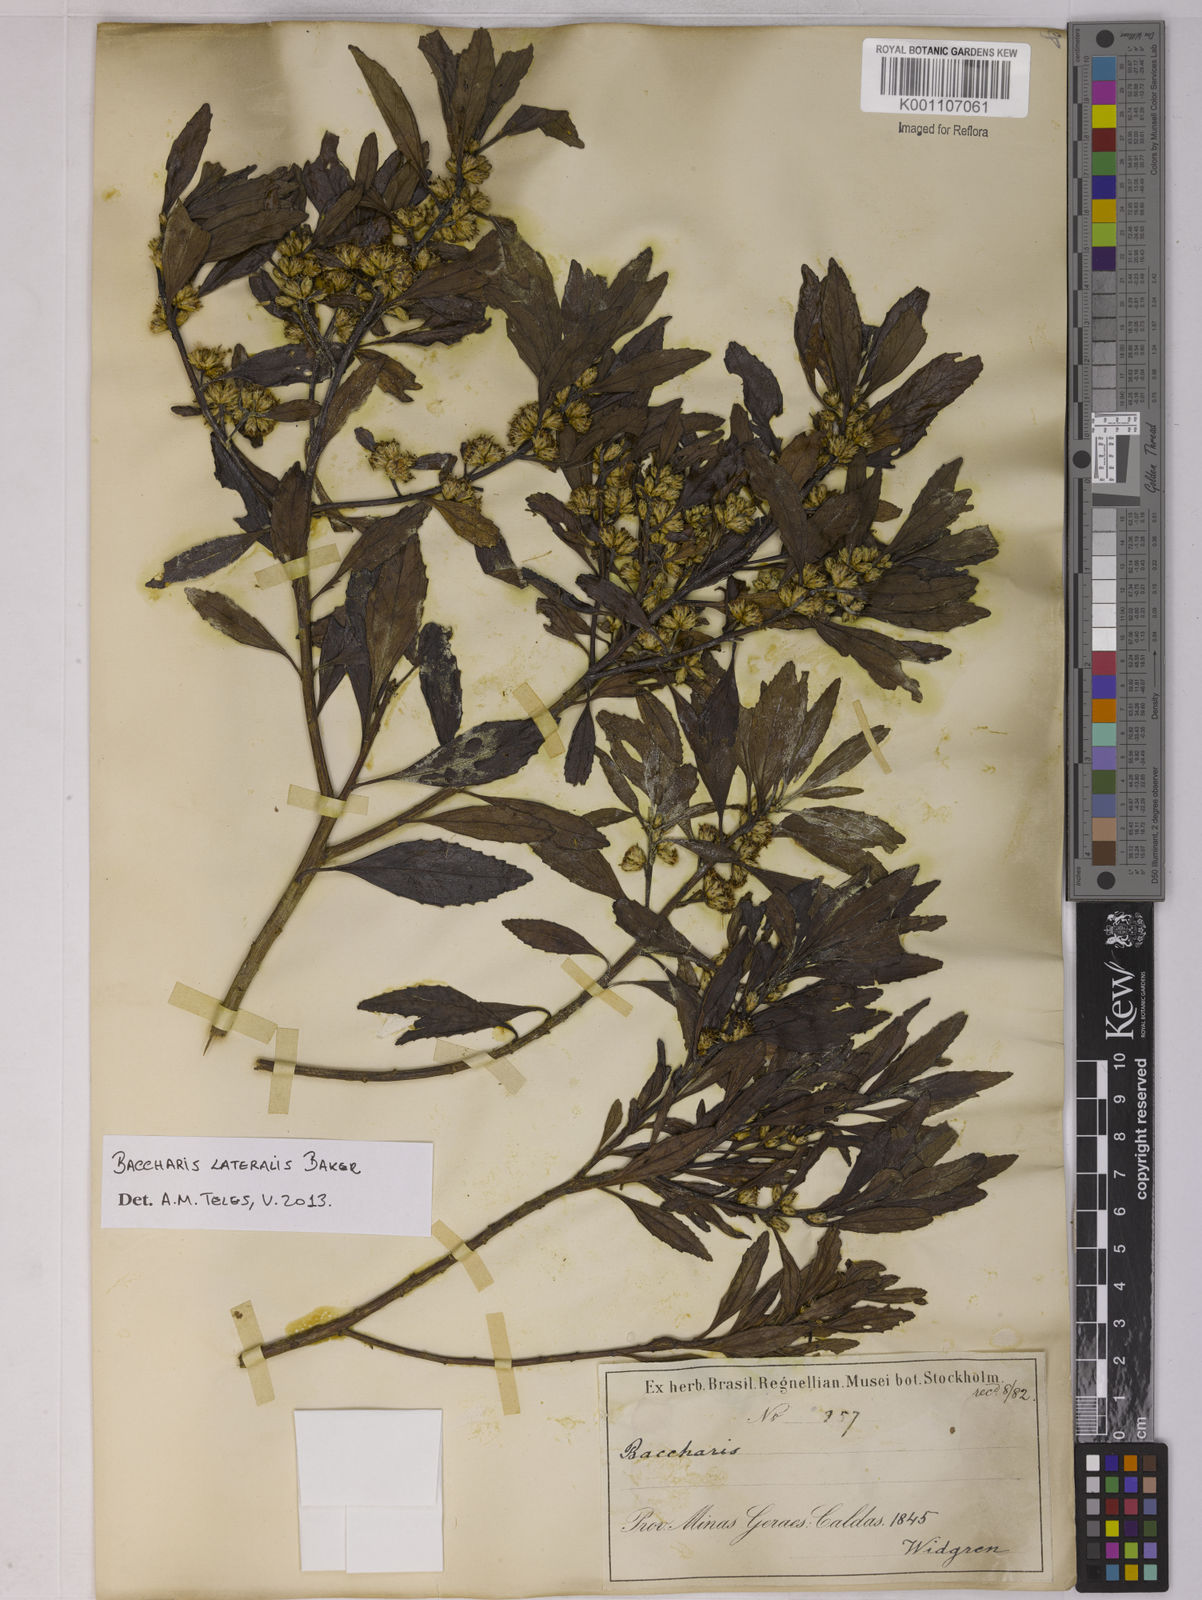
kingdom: Plantae
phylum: Tracheophyta
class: Magnoliopsida
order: Asterales
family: Asteraceae
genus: Baccharis
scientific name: Baccharis lateralis
